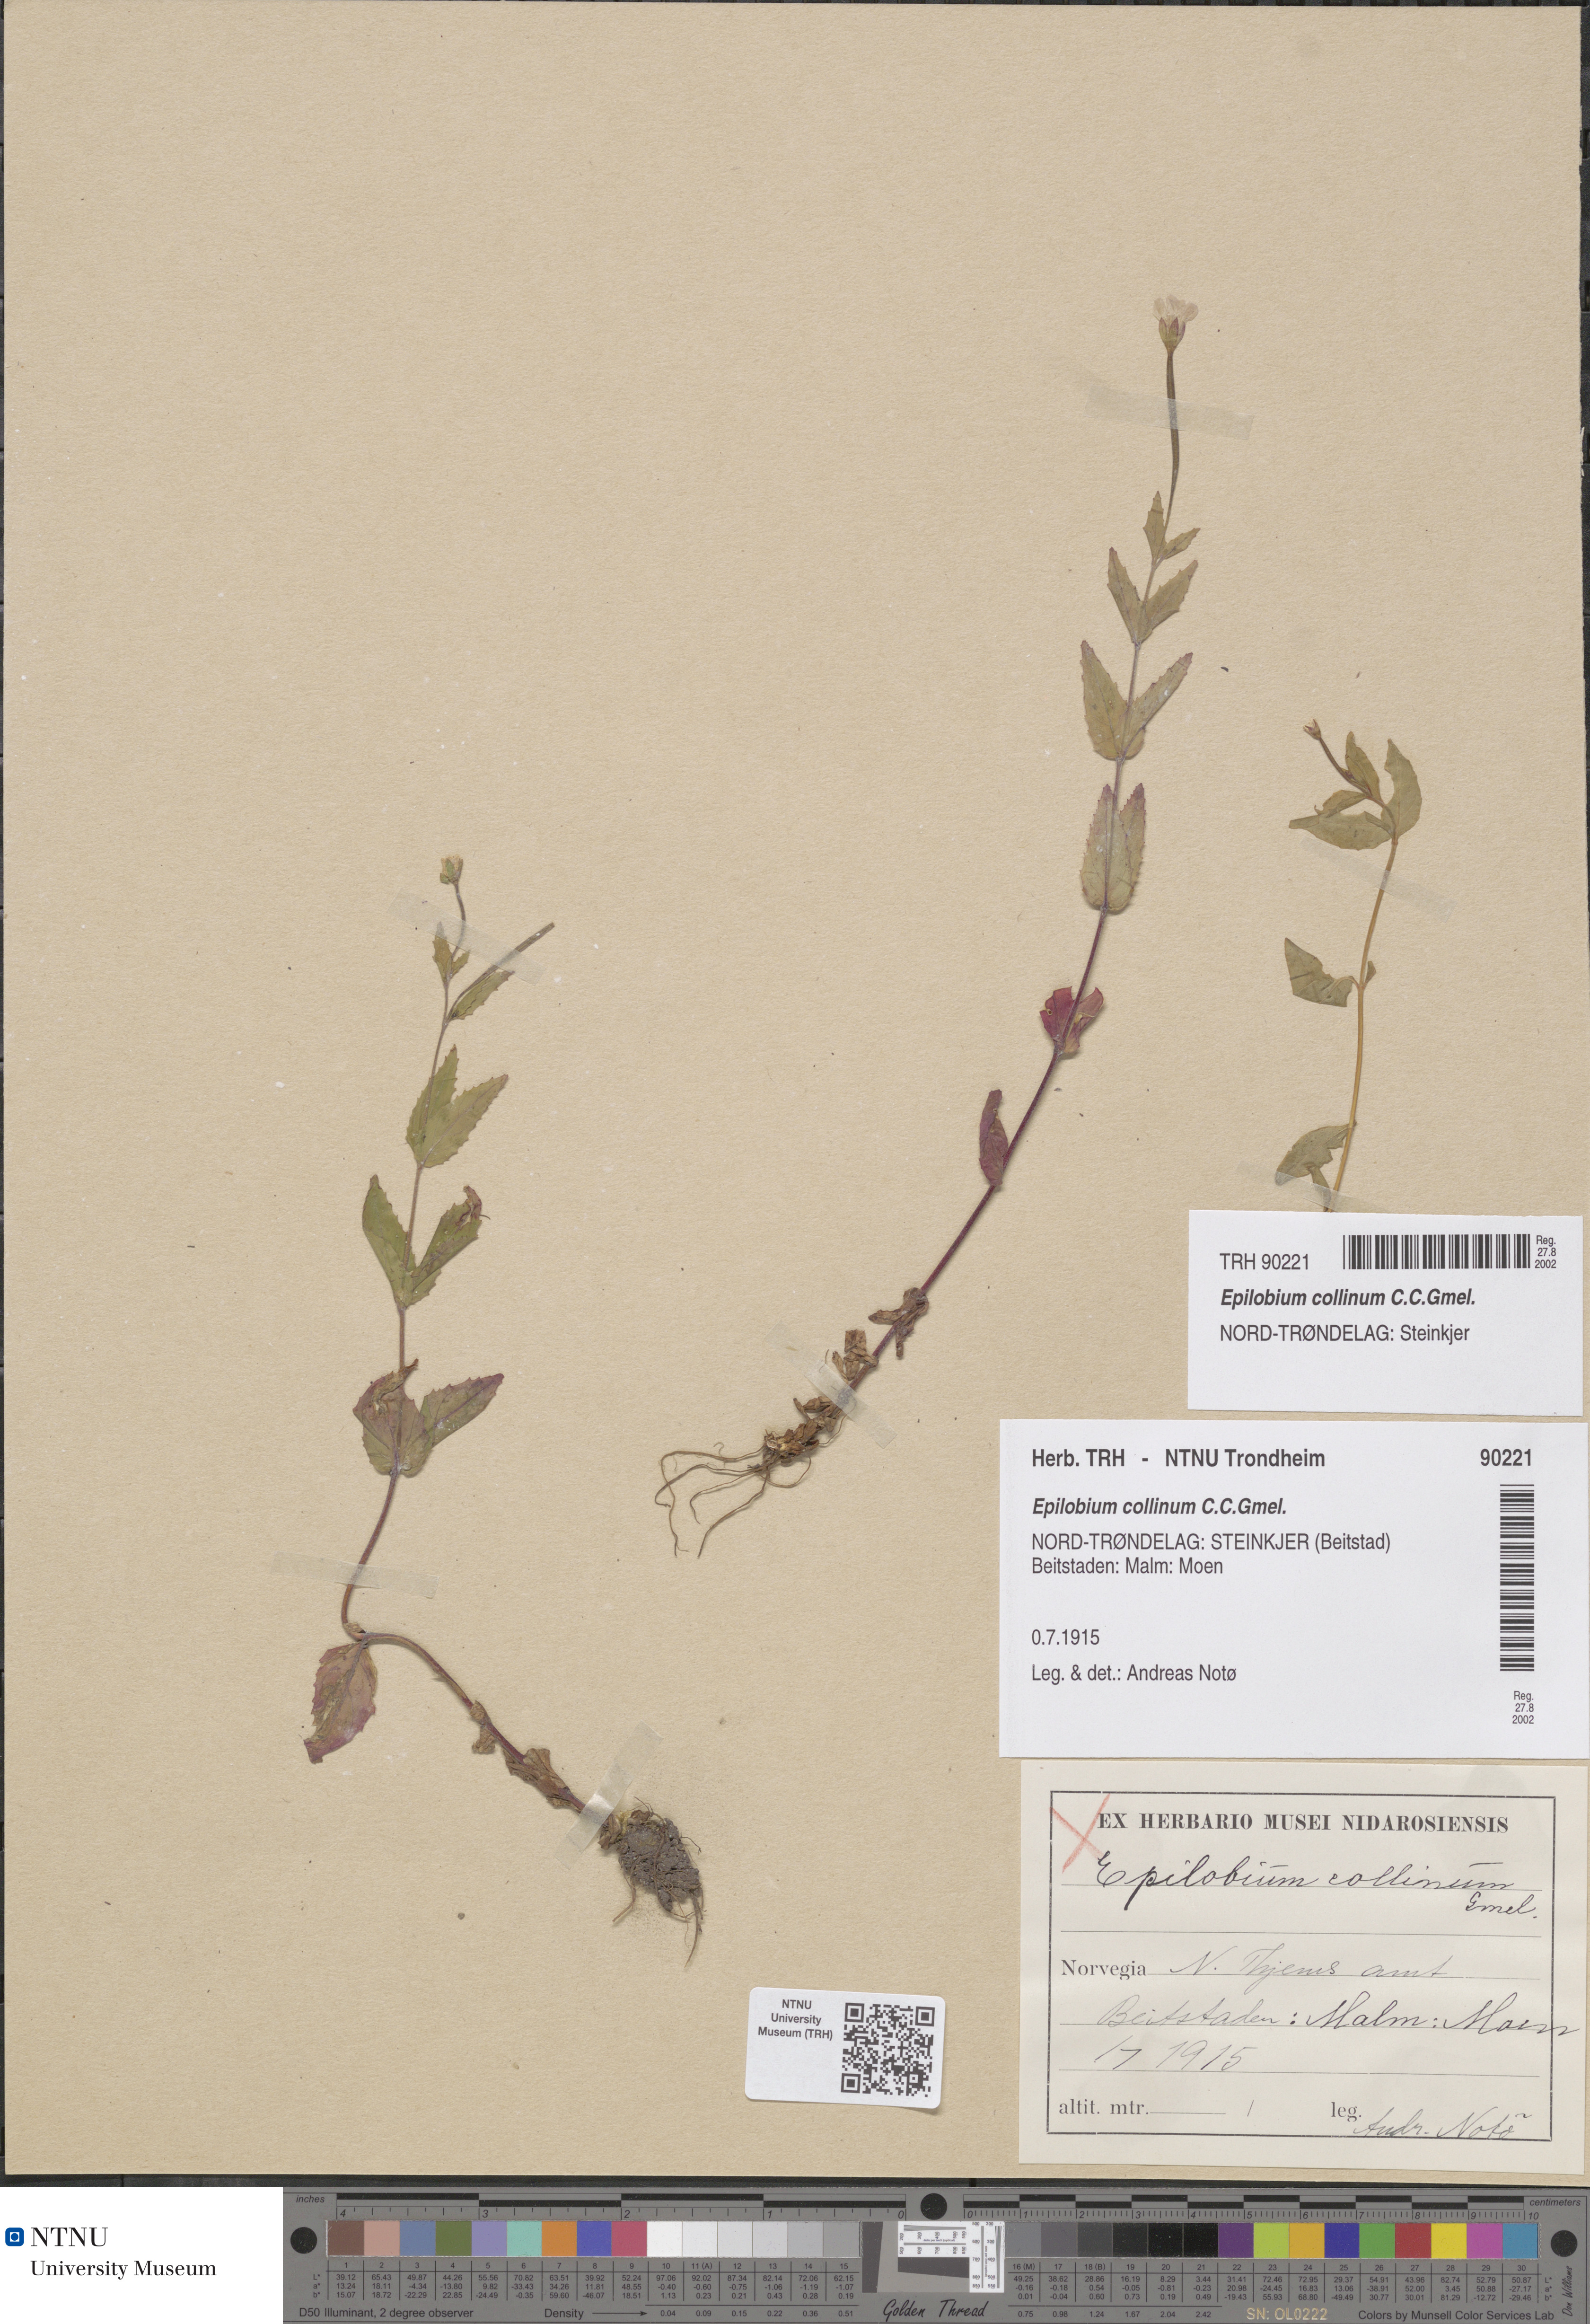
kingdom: Plantae
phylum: Tracheophyta
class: Magnoliopsida
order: Myrtales
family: Onagraceae
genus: Epilobium
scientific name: Epilobium collinum
